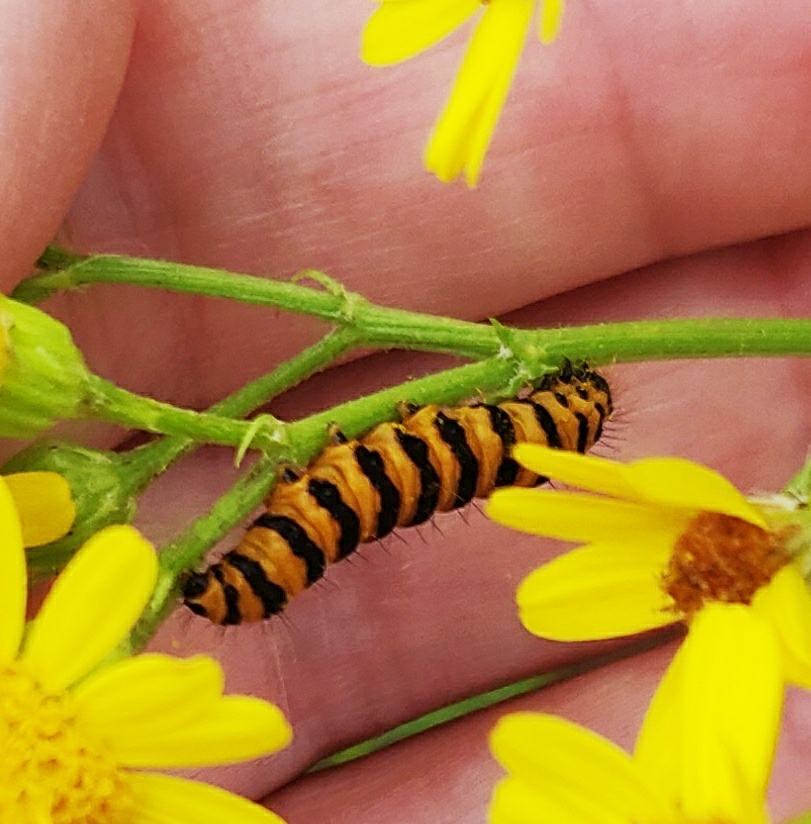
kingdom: Animalia
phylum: Arthropoda
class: Insecta
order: Lepidoptera
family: Erebidae
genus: Tyria
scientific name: Tyria jacobaeae
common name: Blodplet
